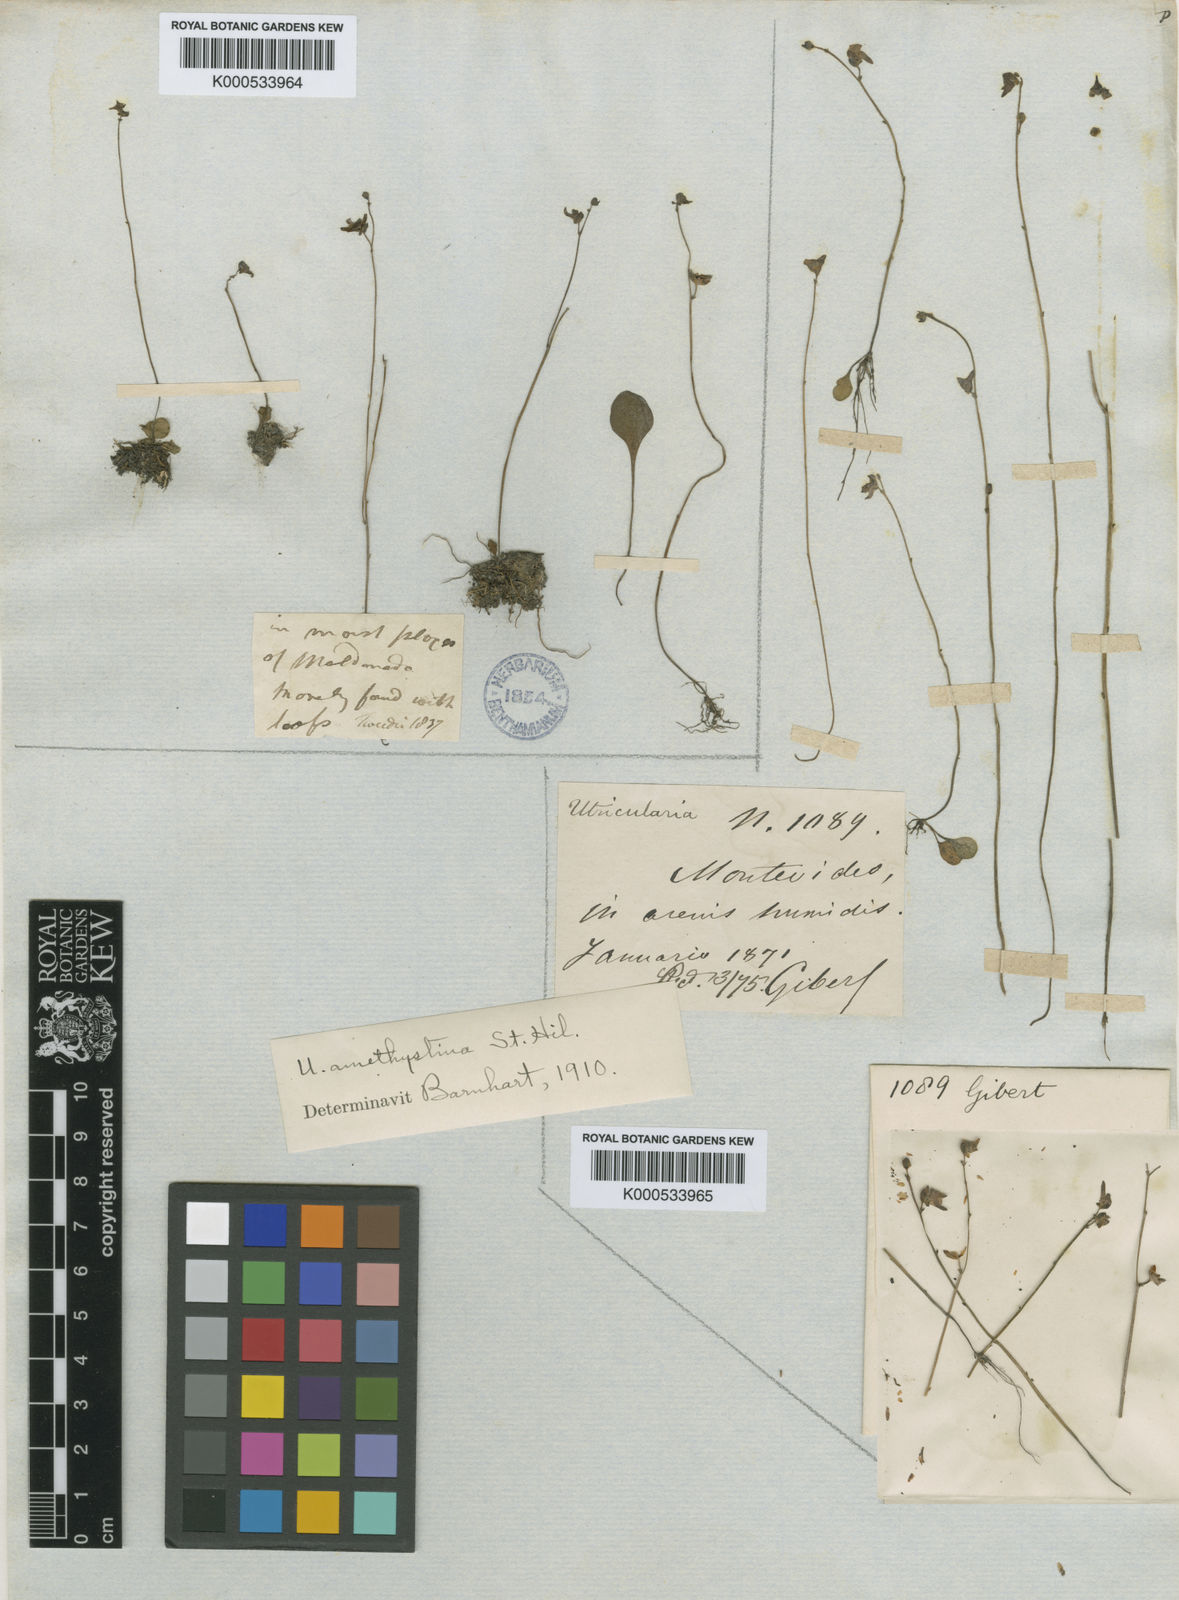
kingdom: Plantae
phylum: Tracheophyta
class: Magnoliopsida
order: Lamiales
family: Lentibulariaceae
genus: Utricularia
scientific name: Utricularia amethystina
